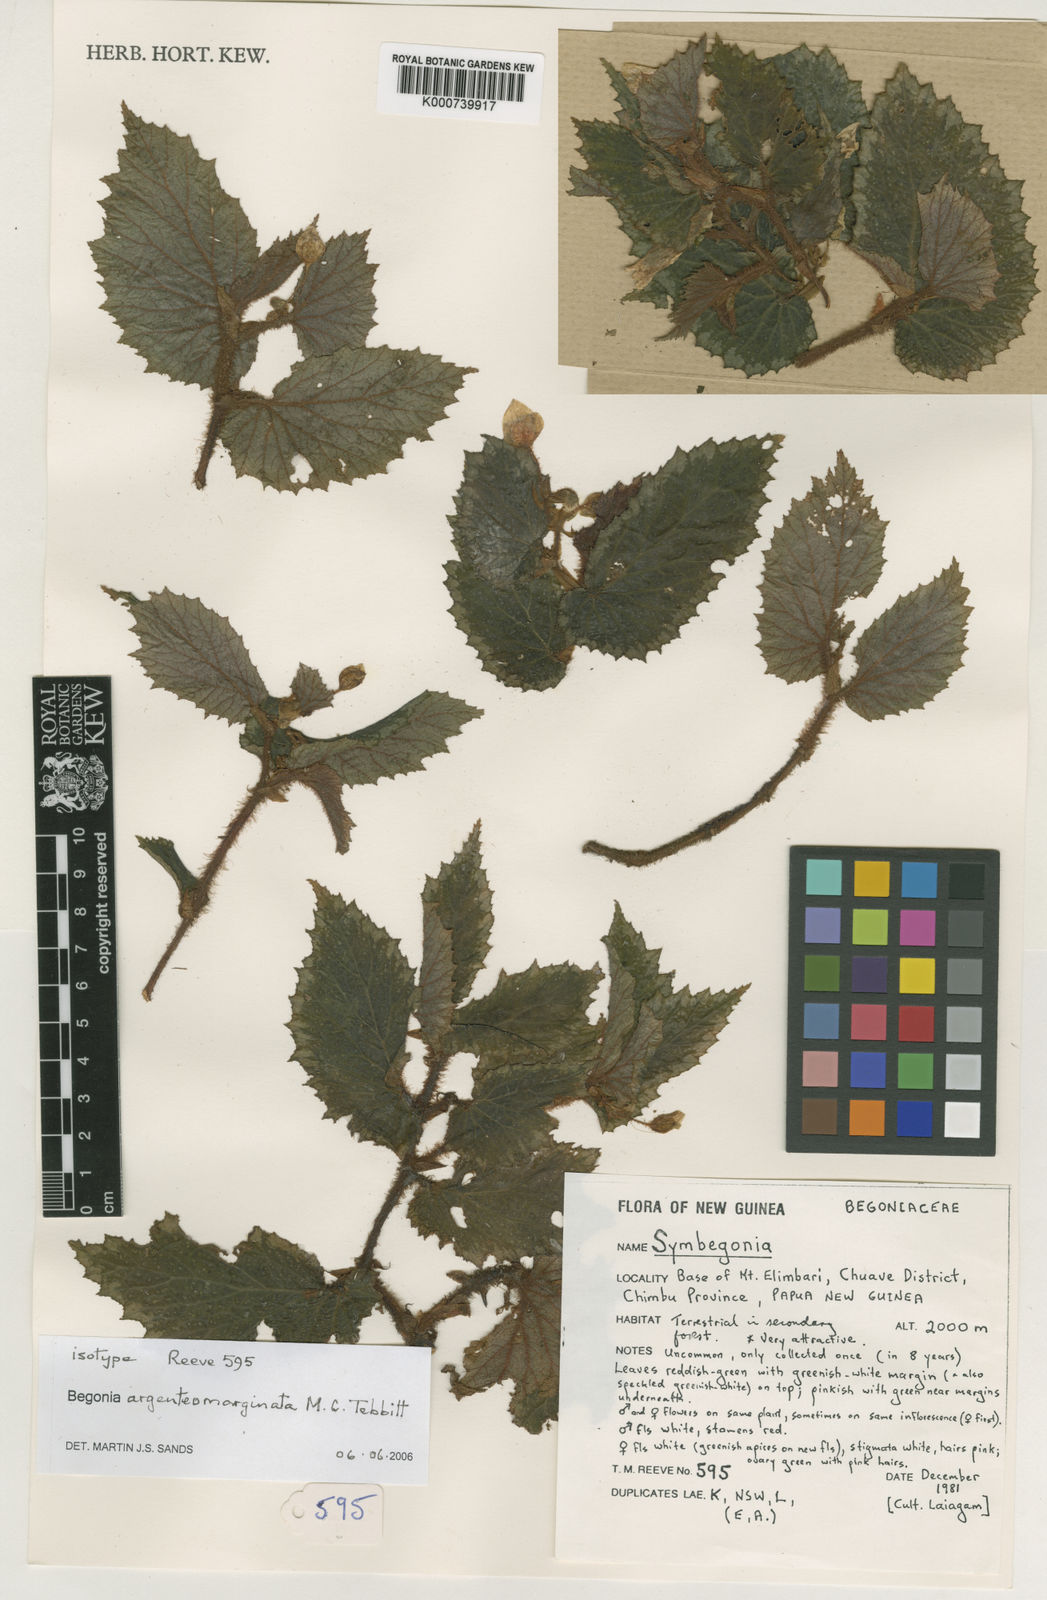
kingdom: Plantae
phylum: Tracheophyta
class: Magnoliopsida
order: Cucurbitales
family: Begoniaceae
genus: Begonia
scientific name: Begonia
